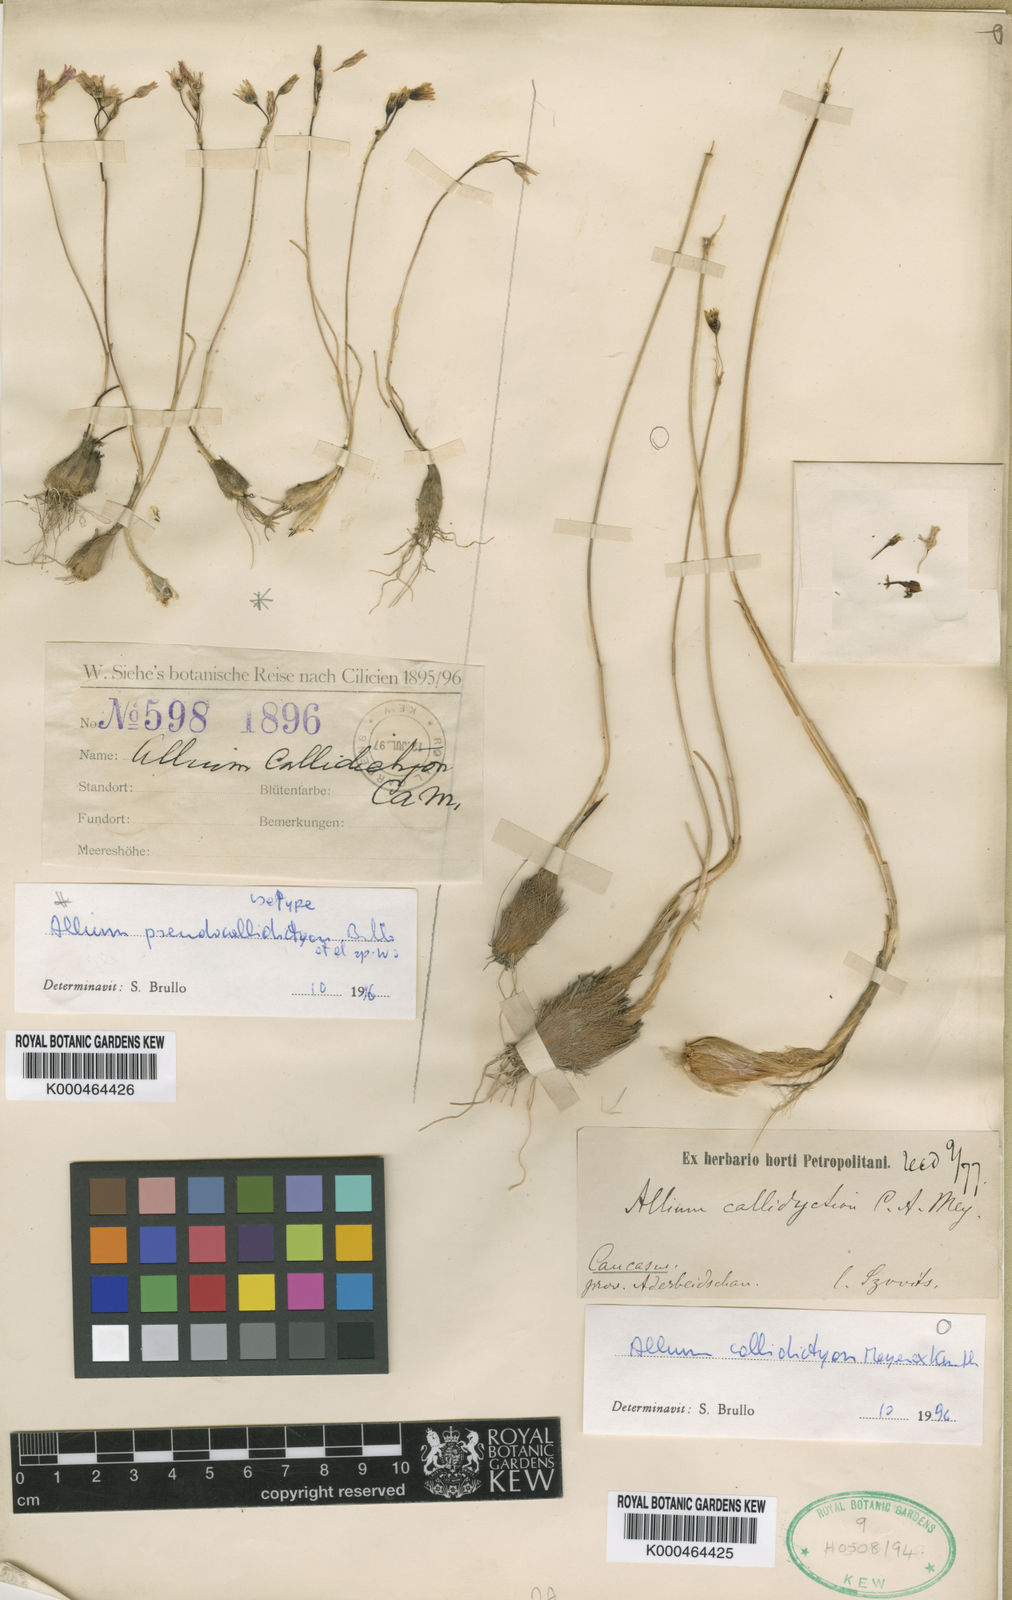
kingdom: Plantae
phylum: Tracheophyta
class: Liliopsida
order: Asparagales
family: Amaryllidaceae
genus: Allium
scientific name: Allium
